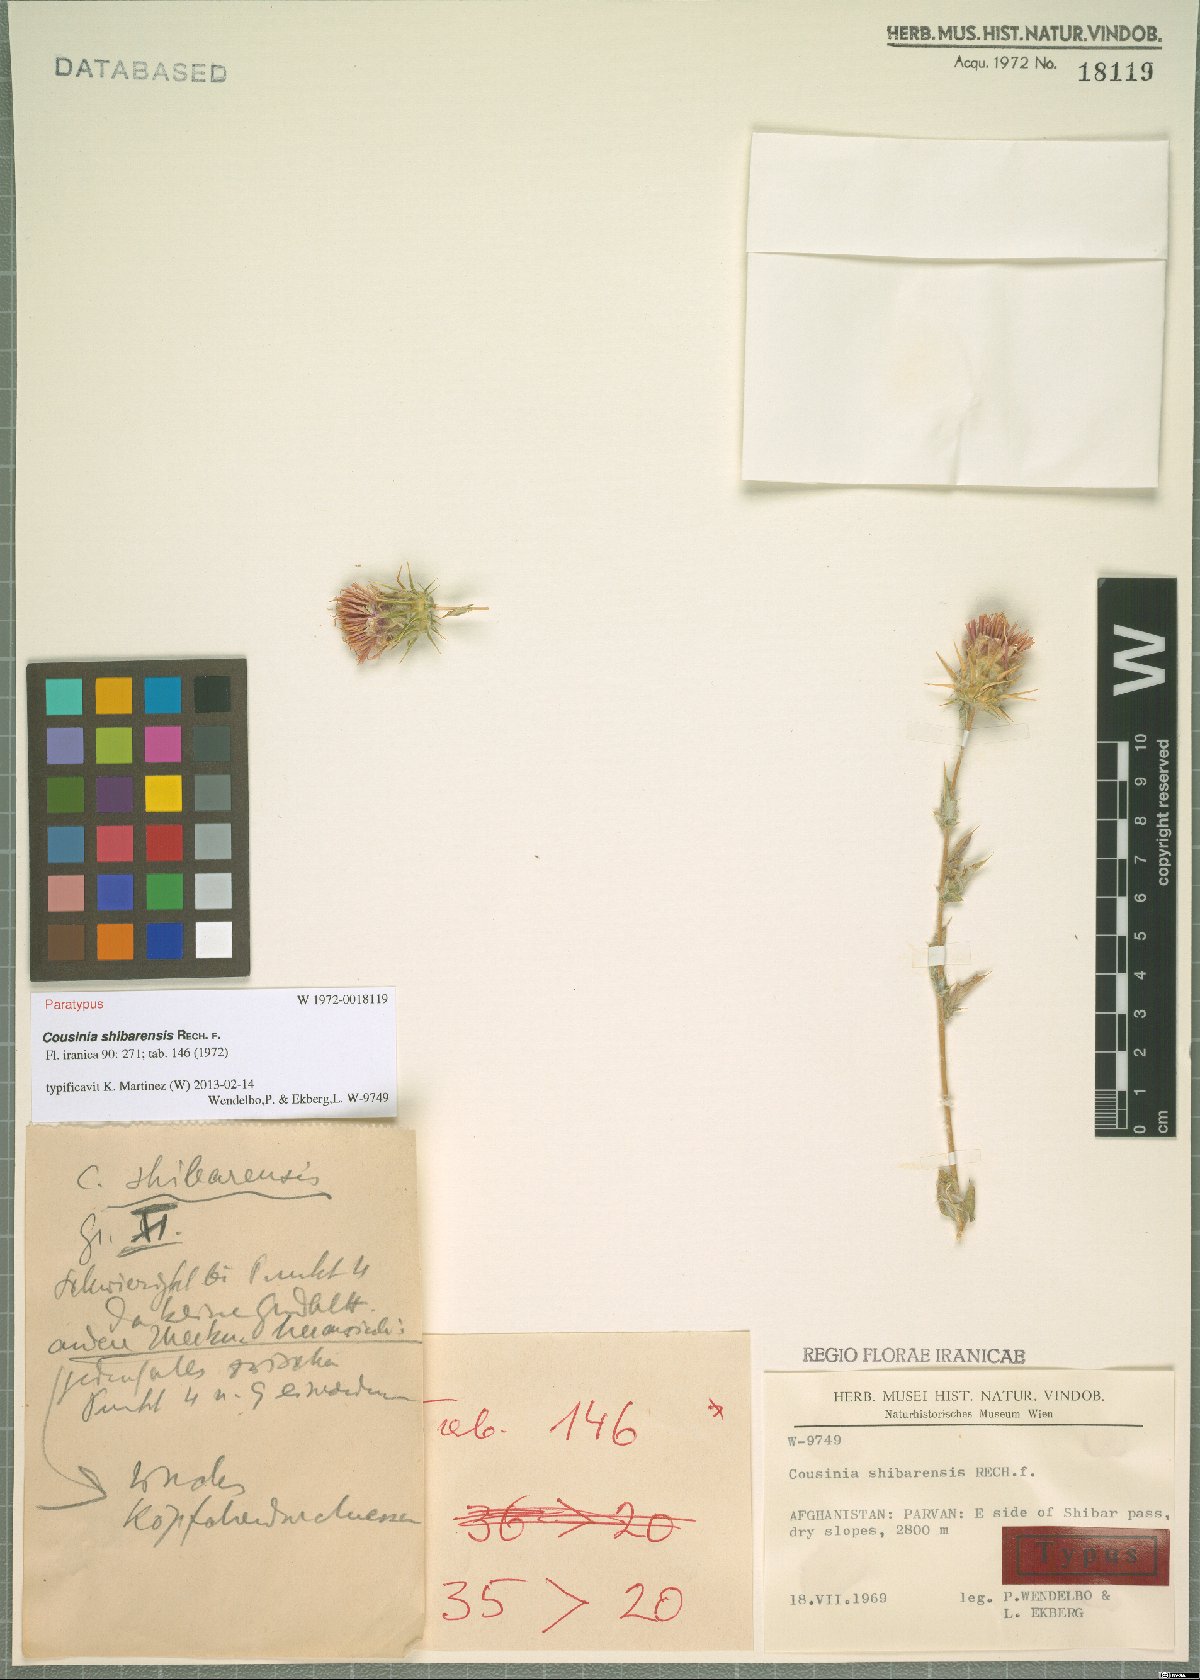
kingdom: Plantae
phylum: Tracheophyta
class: Magnoliopsida
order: Asterales
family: Asteraceae
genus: Cousinia
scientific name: Cousinia shibarensis
